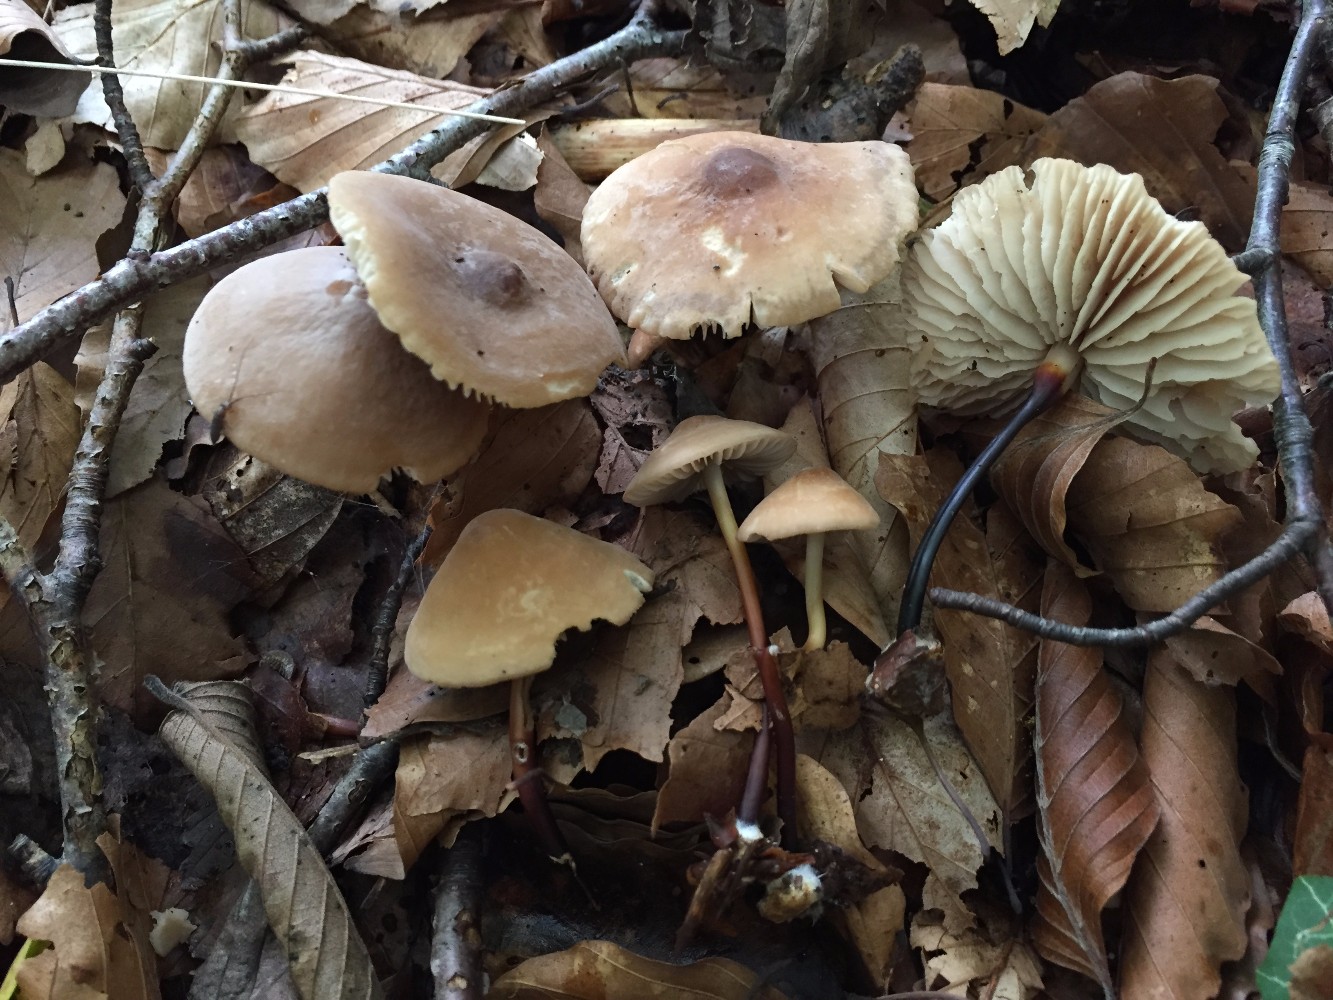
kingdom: Fungi
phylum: Basidiomycota
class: Agaricomycetes
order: Agaricales
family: Marasmiaceae
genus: Marasmius
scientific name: Marasmius cohaerens
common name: hornstokket bruskhat
